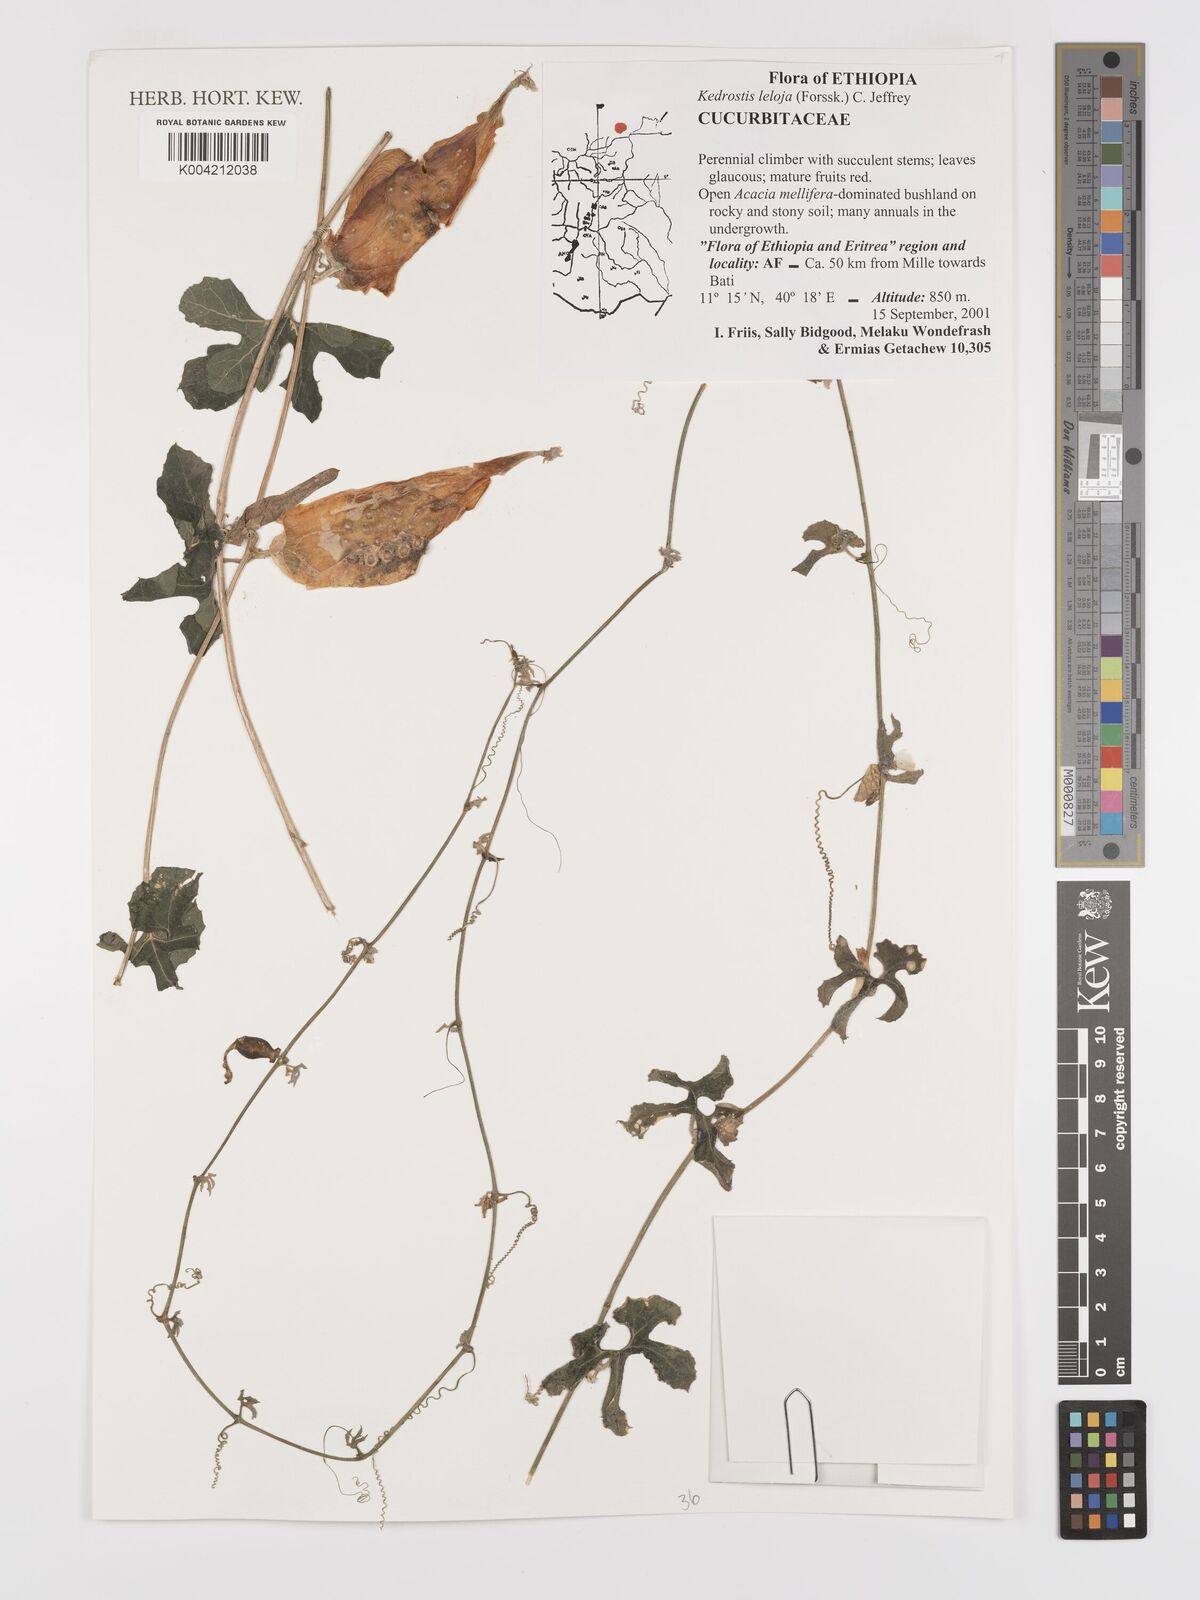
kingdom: Plantae
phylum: Tracheophyta
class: Magnoliopsida
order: Cucurbitales
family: Cucurbitaceae
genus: Kedrostis
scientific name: Kedrostis leloja
